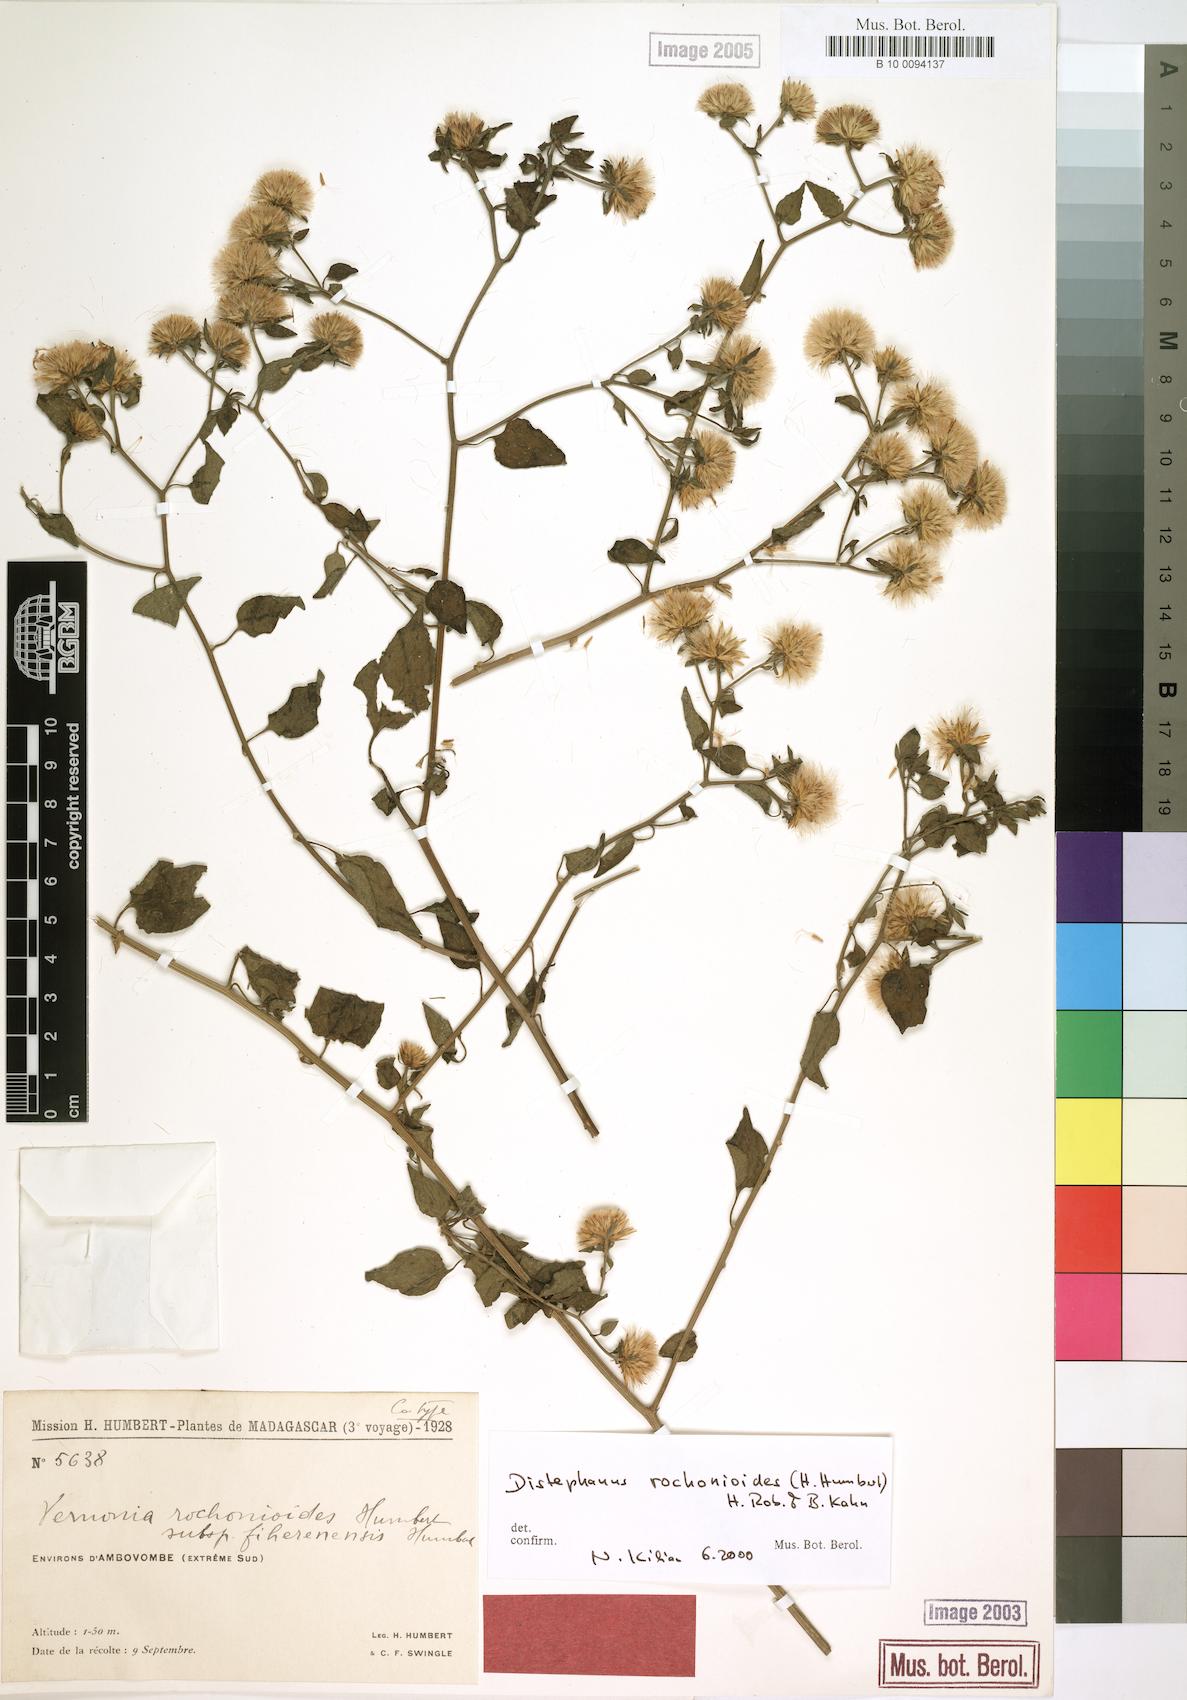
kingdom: Plantae
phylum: Tracheophyta
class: Magnoliopsida
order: Asterales
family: Asteraceae
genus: Distephanus
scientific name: Distephanus rochonioides
